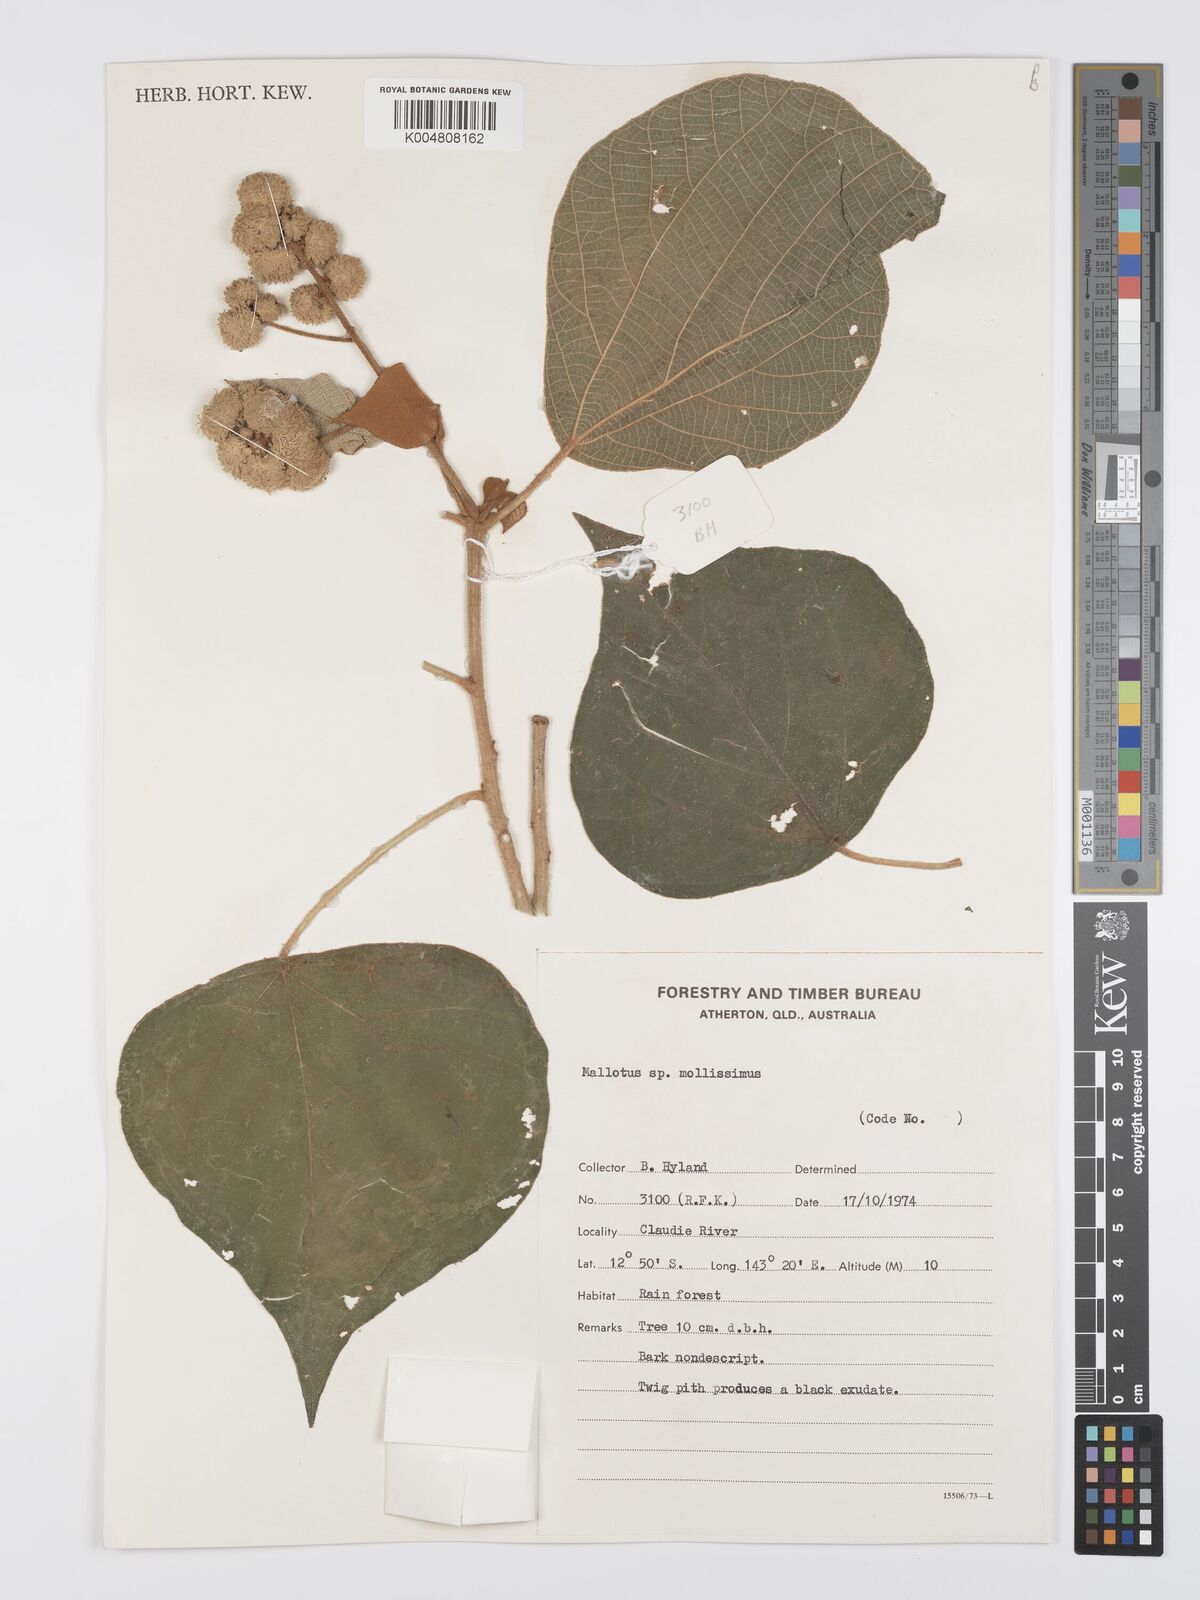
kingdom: Plantae
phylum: Tracheophyta
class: Magnoliopsida
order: Malpighiales
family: Euphorbiaceae
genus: Mallotus
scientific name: Mallotus mollissimus
